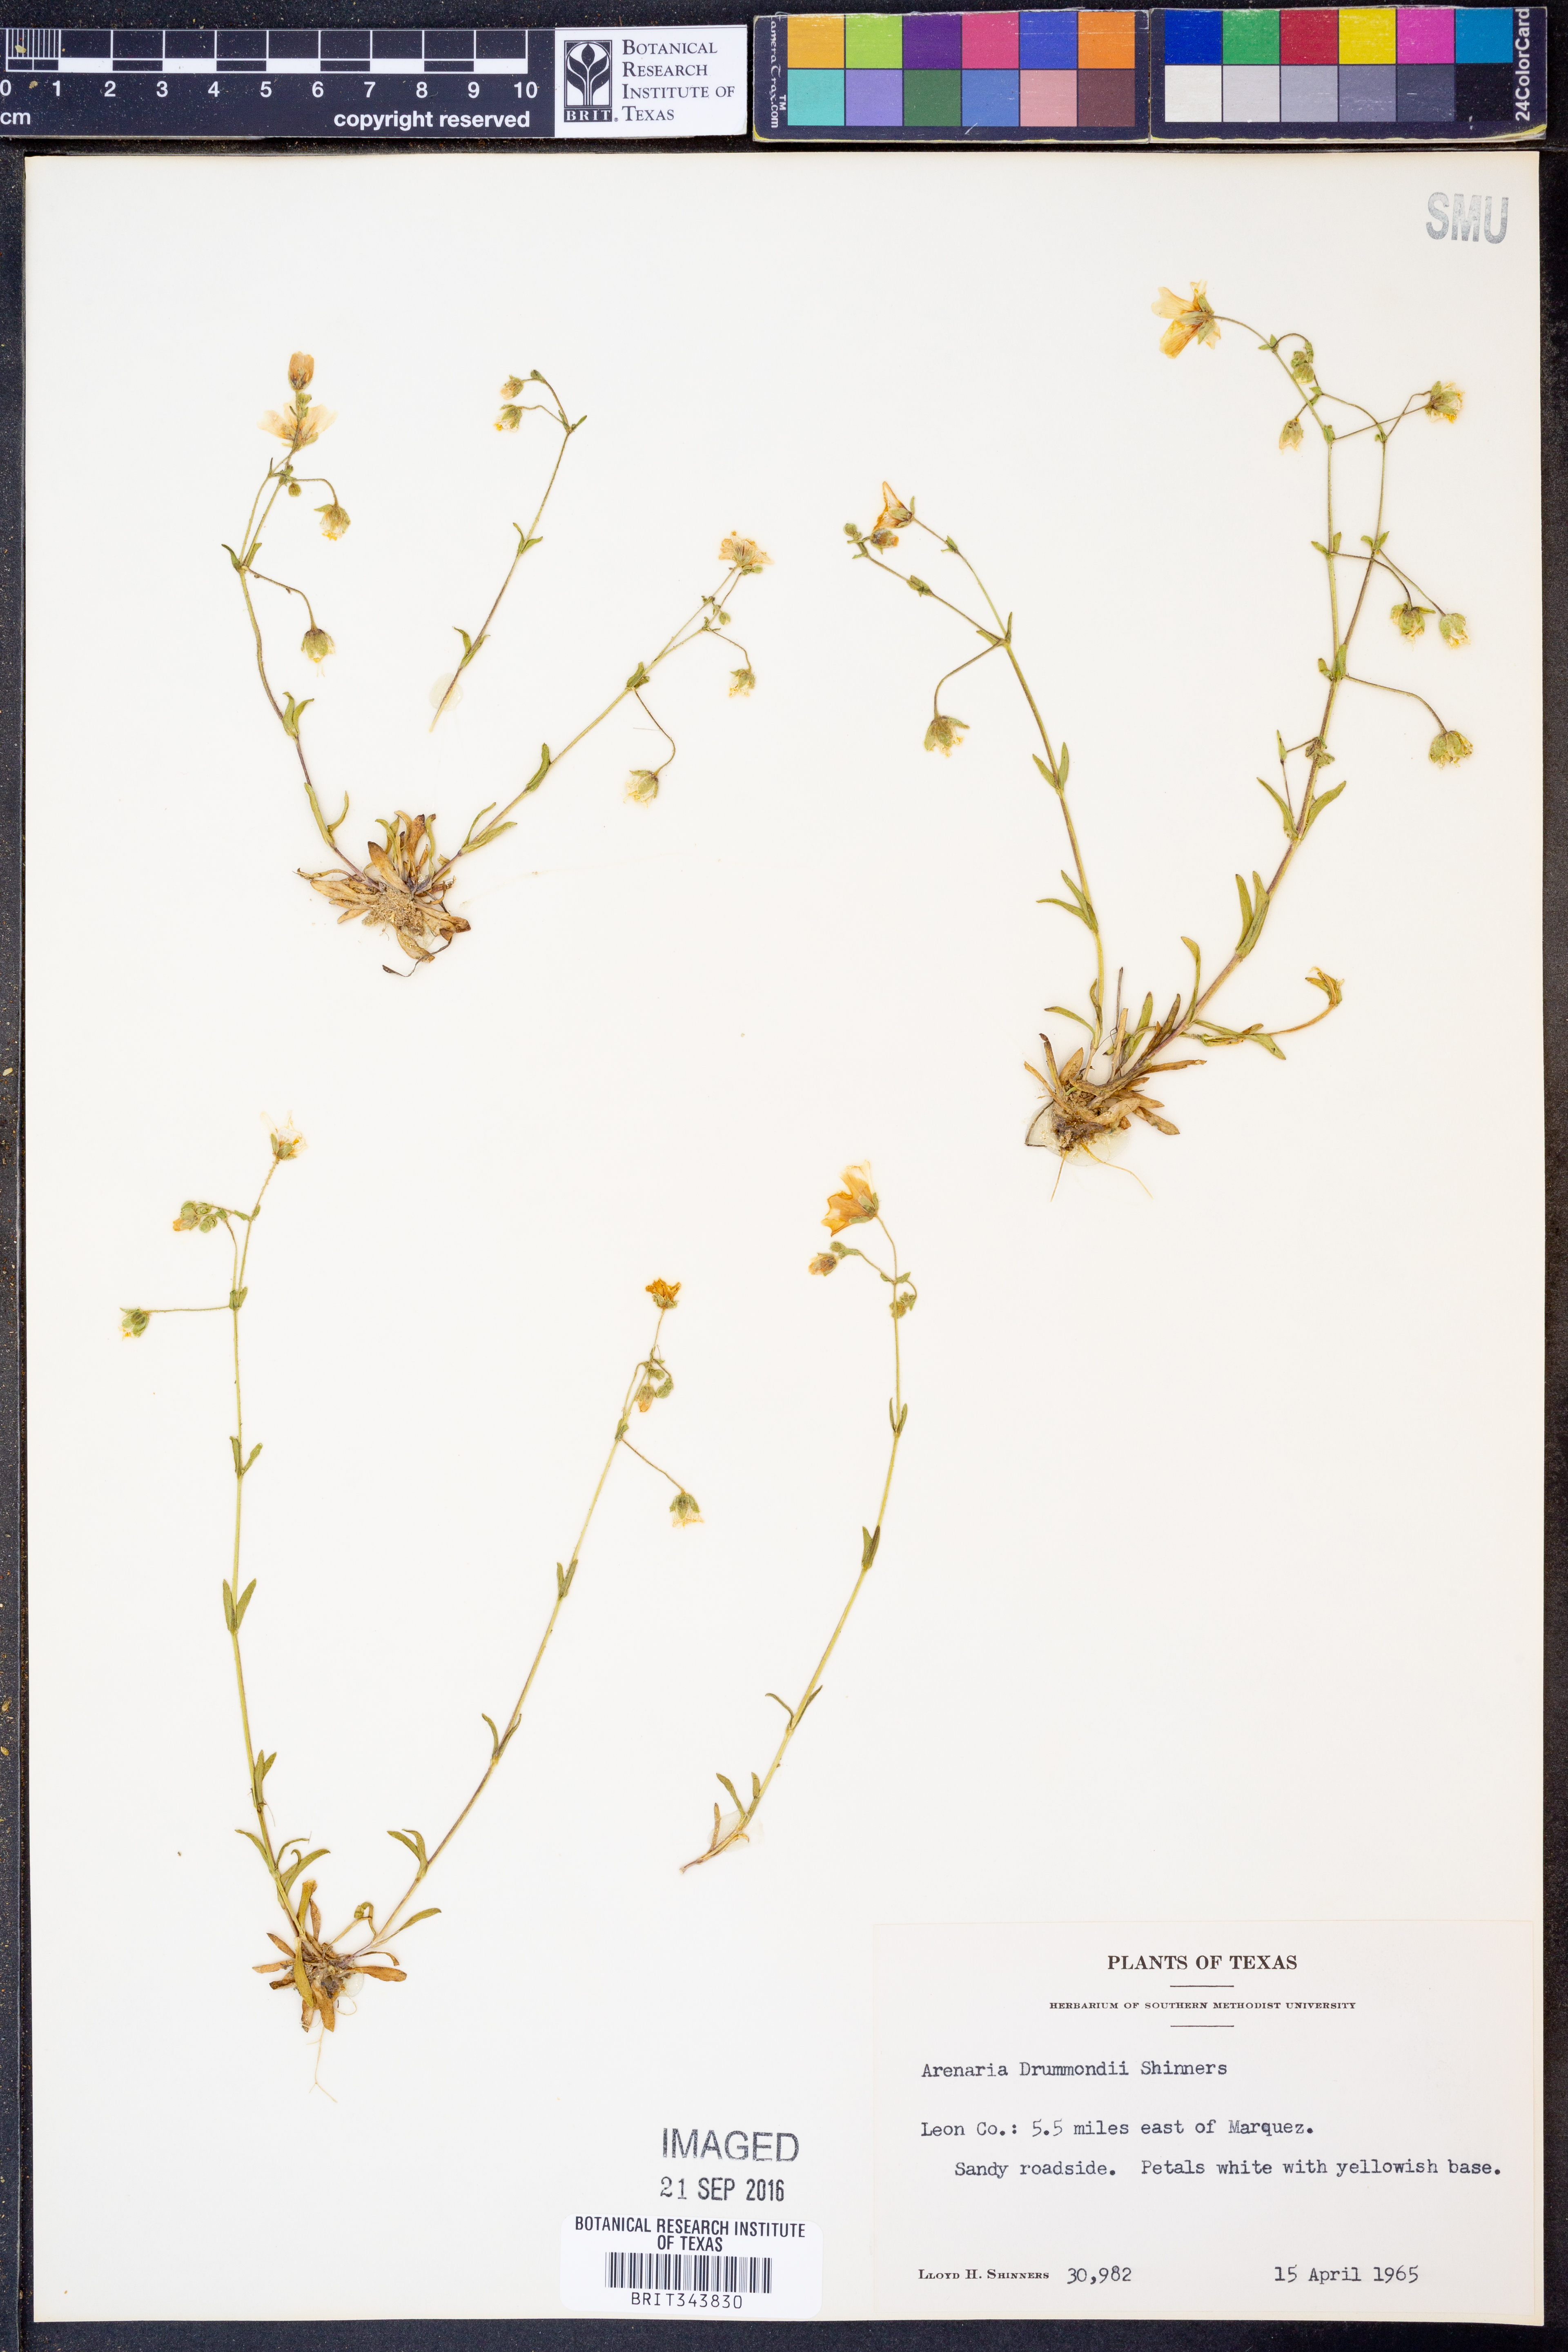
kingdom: Plantae
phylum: Tracheophyta
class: Magnoliopsida
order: Caryophyllales
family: Caryophyllaceae
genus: Geocarpon
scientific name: Geocarpon nuttallii
